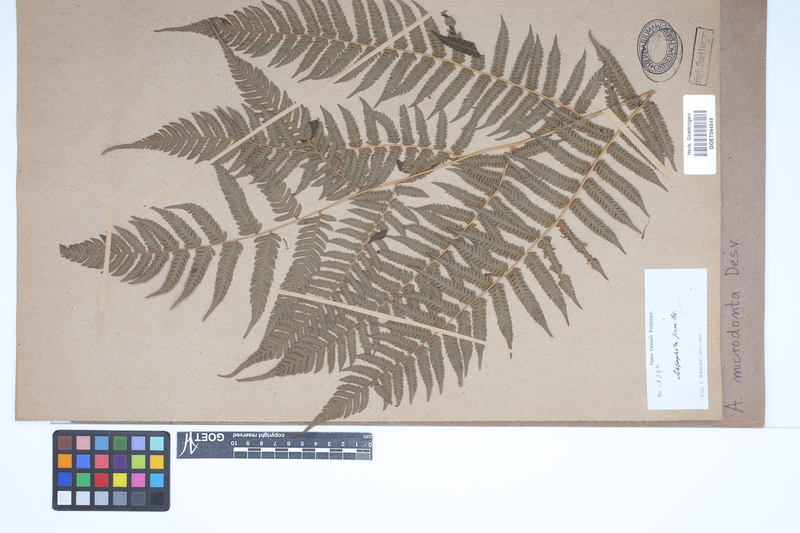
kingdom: Plantae
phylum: Tracheophyta
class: Polypodiopsida
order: Cyatheales
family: Cyatheaceae
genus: Cyathea
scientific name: Cyathea microdonta
